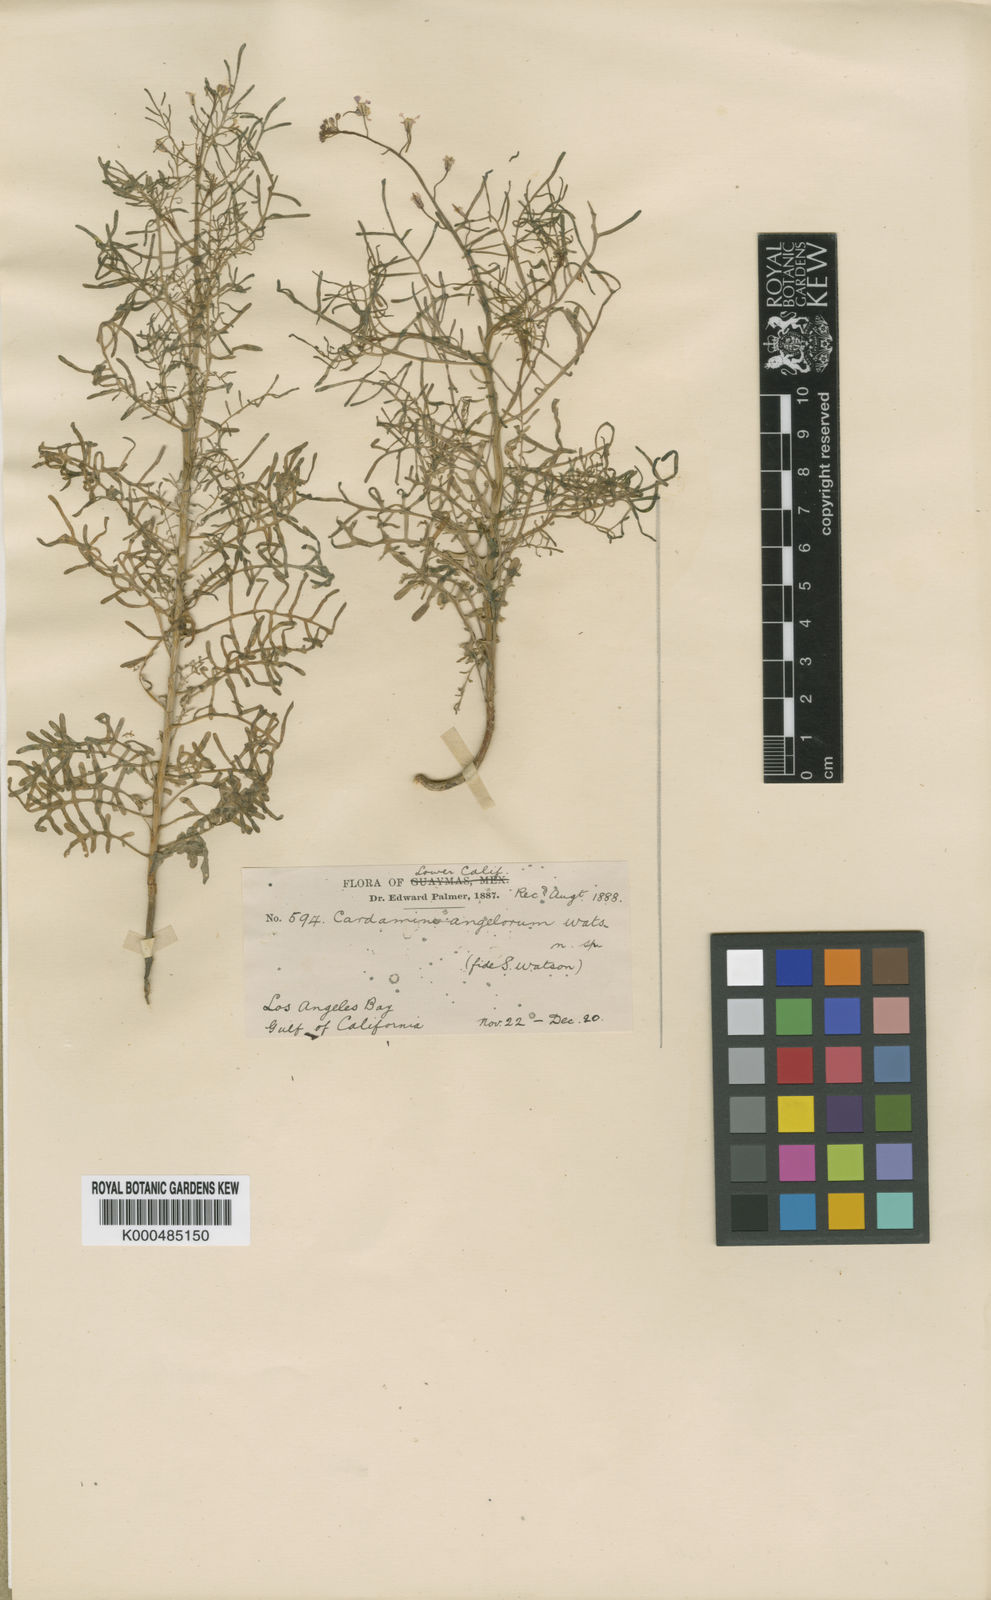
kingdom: Plantae
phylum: Tracheophyta
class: Magnoliopsida
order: Brassicales
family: Brassicaceae
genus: Sibara
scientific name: Sibara angelorum
